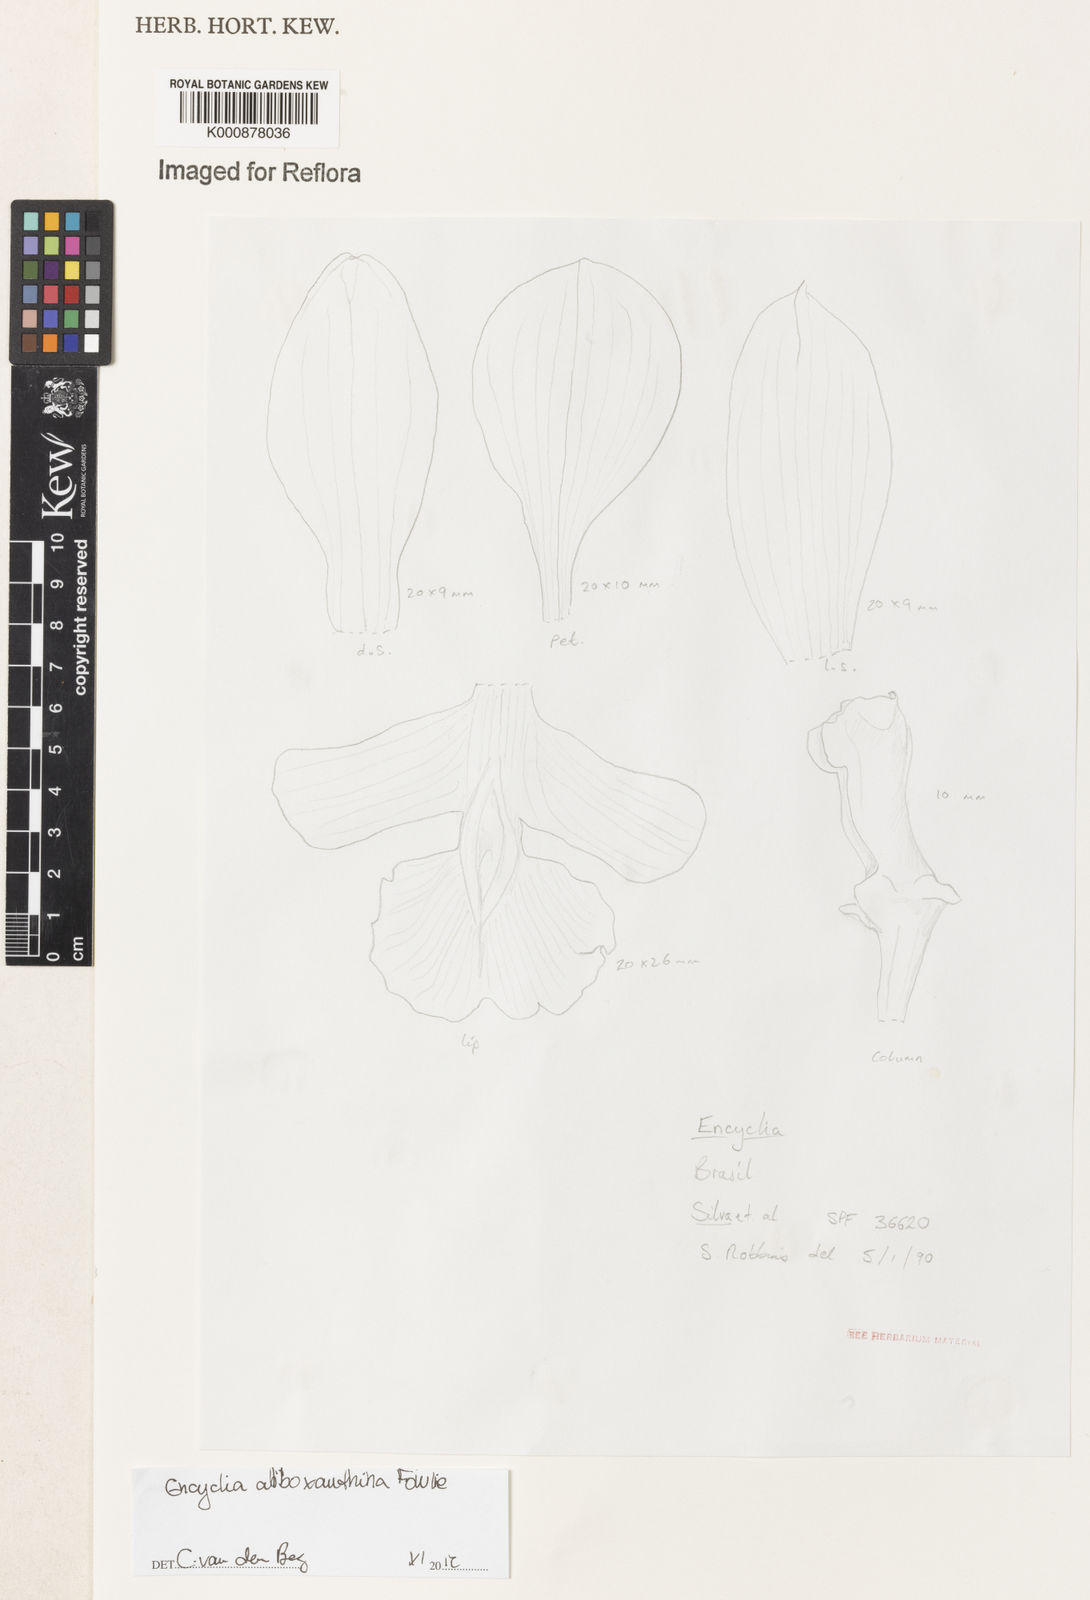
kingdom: Plantae
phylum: Tracheophyta
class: Liliopsida
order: Asparagales
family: Orchidaceae
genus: Encyclia
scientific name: Encyclia alboxanthina
